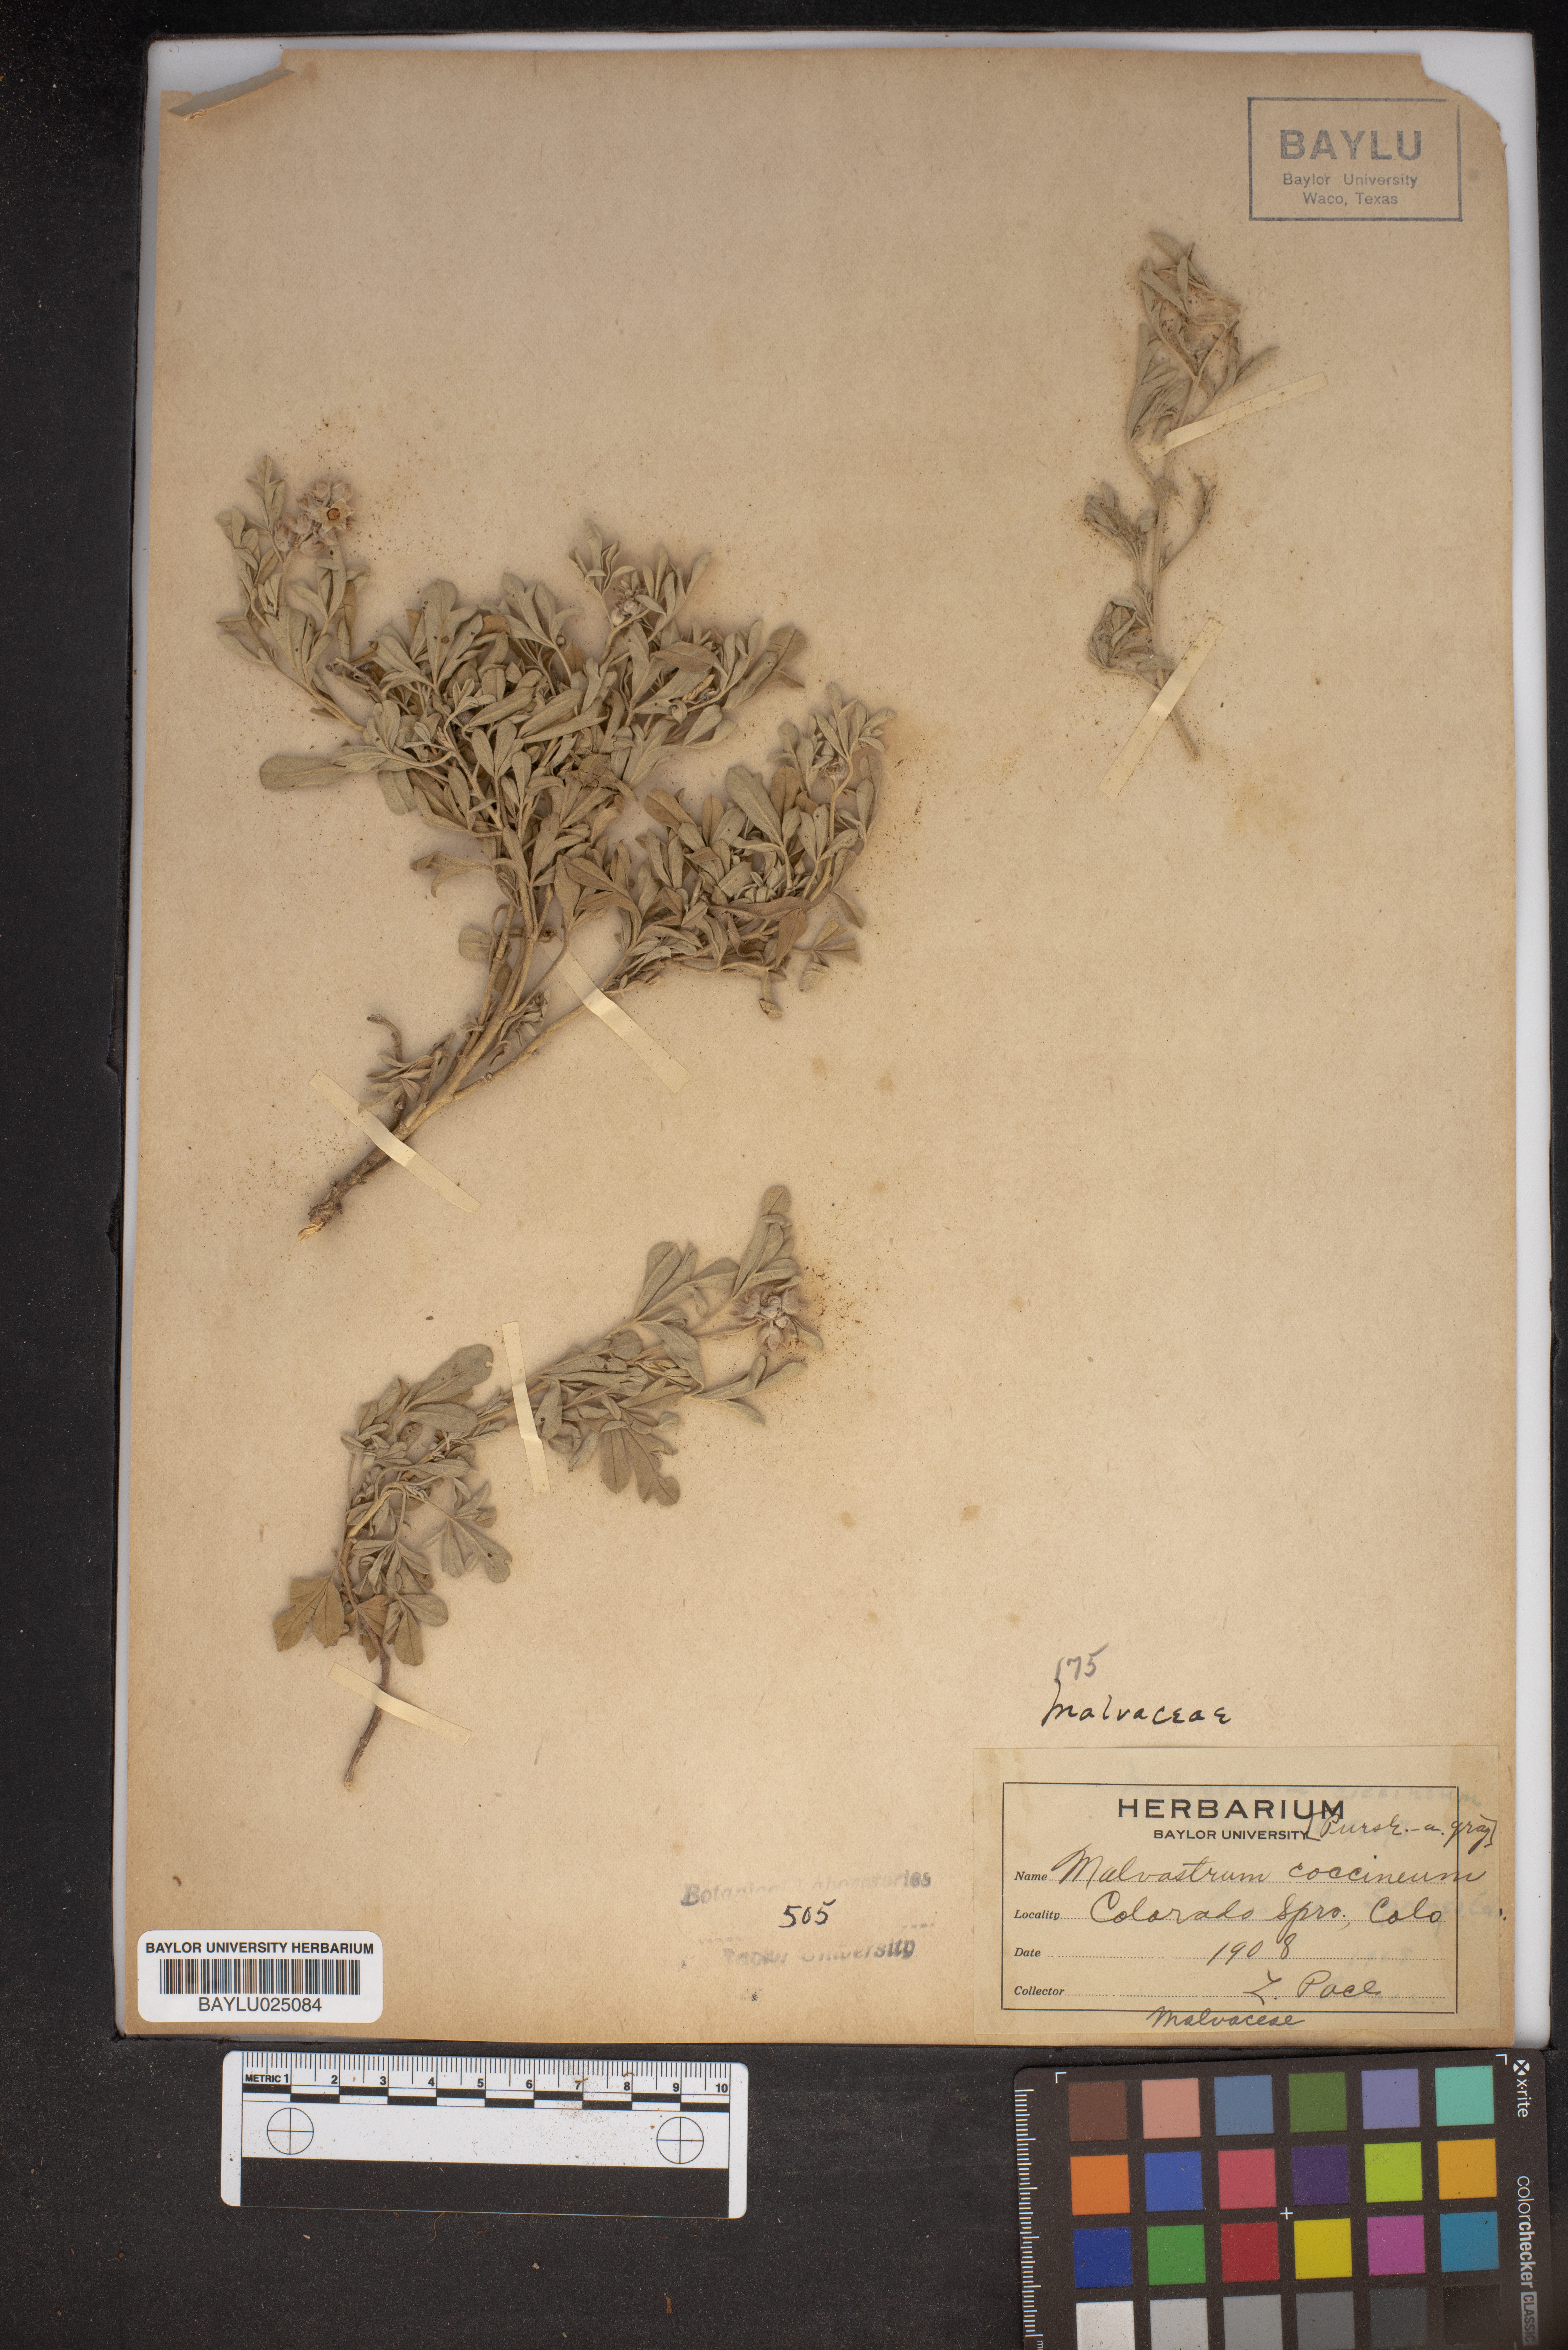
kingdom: Plantae
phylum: Tracheophyta
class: Magnoliopsida
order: Malvales
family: Malvaceae
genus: Sphaeralcea
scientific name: Sphaeralcea coccinea
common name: Moss-rose
